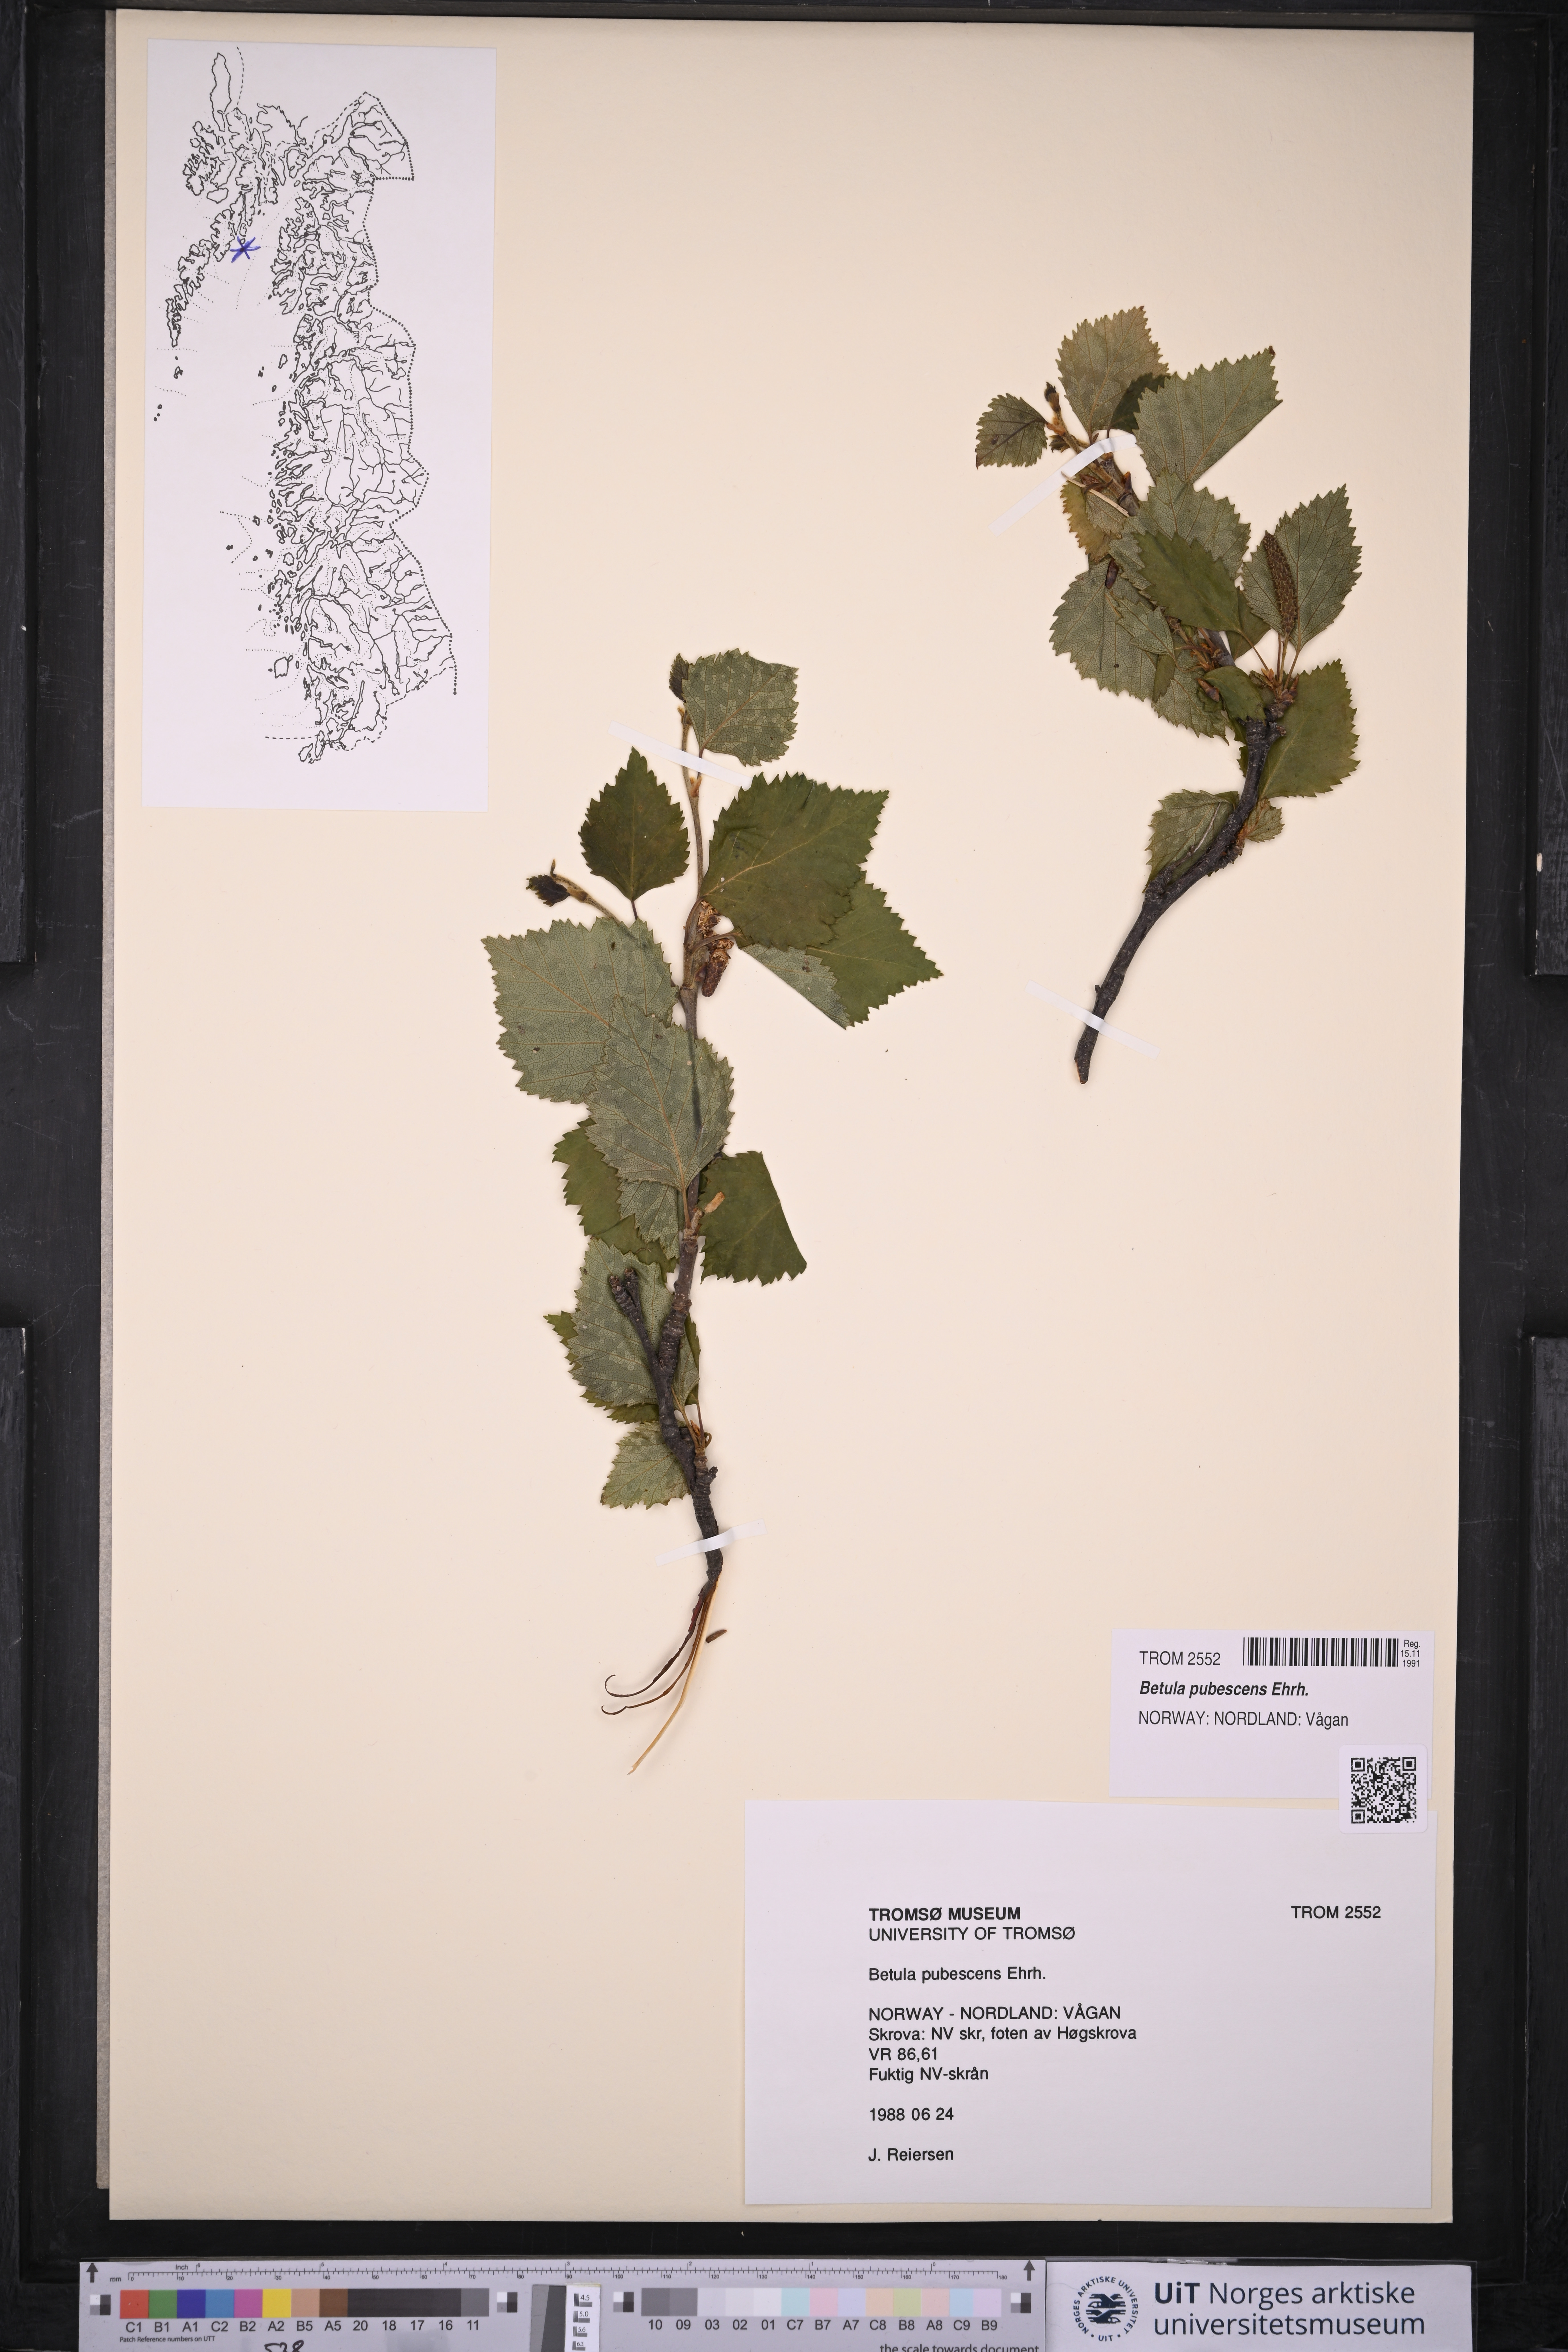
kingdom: Plantae
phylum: Tracheophyta
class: Magnoliopsida
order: Fagales
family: Betulaceae
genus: Betula
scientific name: Betula pubescens
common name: Downy birch
